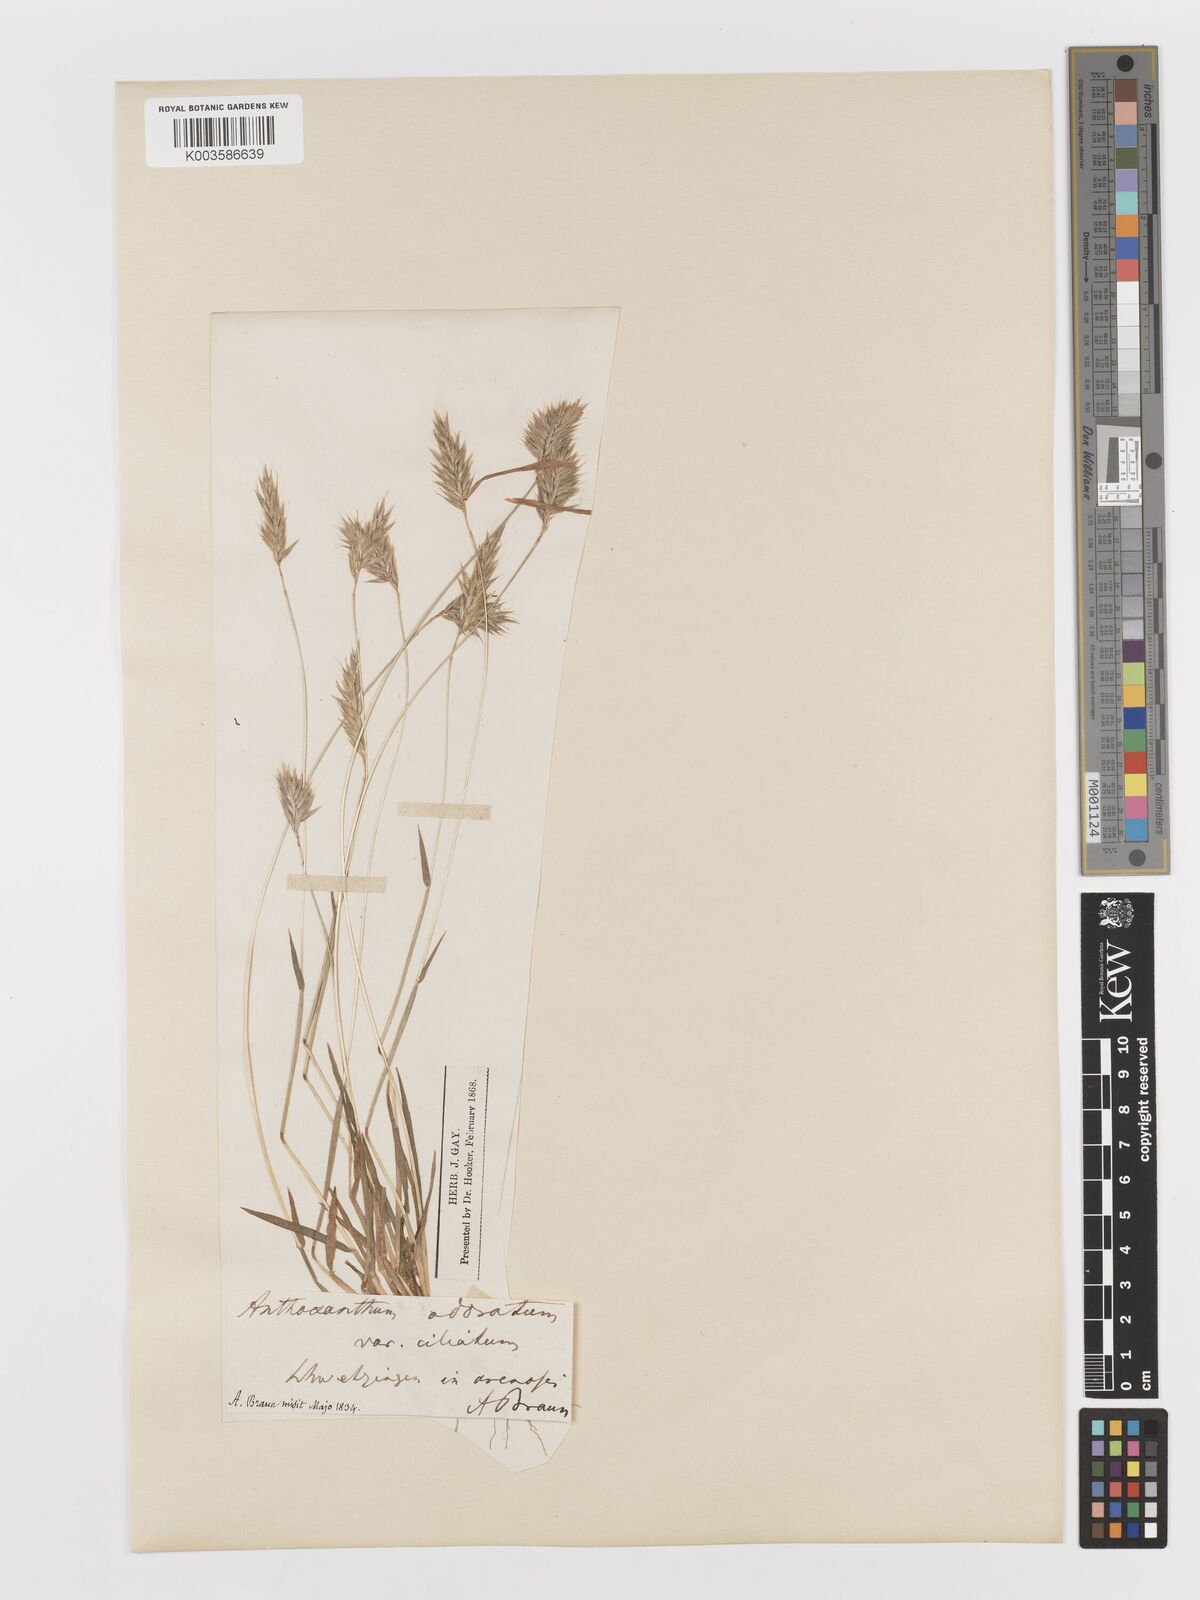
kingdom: Plantae
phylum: Tracheophyta
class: Liliopsida
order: Poales
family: Poaceae
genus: Anthoxanthum
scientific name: Anthoxanthum odoratum
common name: Sweet vernalgrass
